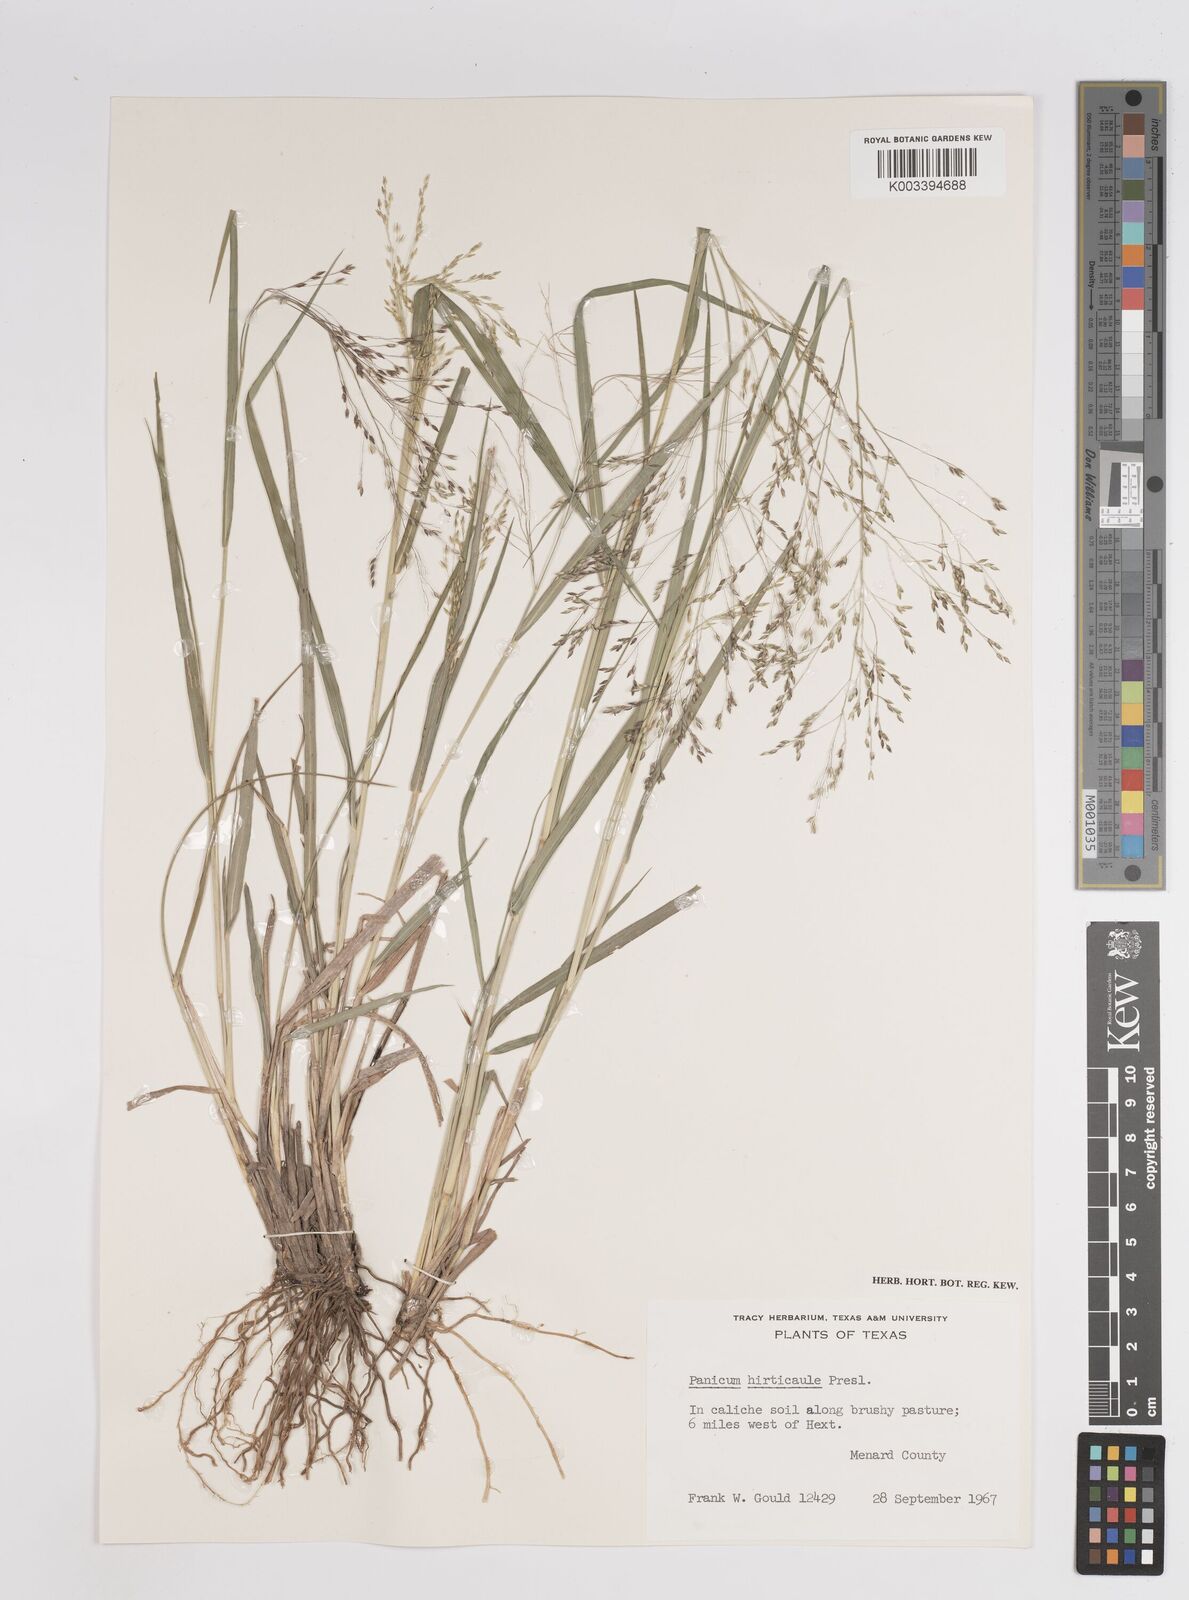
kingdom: Plantae
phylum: Tracheophyta
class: Liliopsida
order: Poales
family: Poaceae
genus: Panicum
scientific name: Panicum
